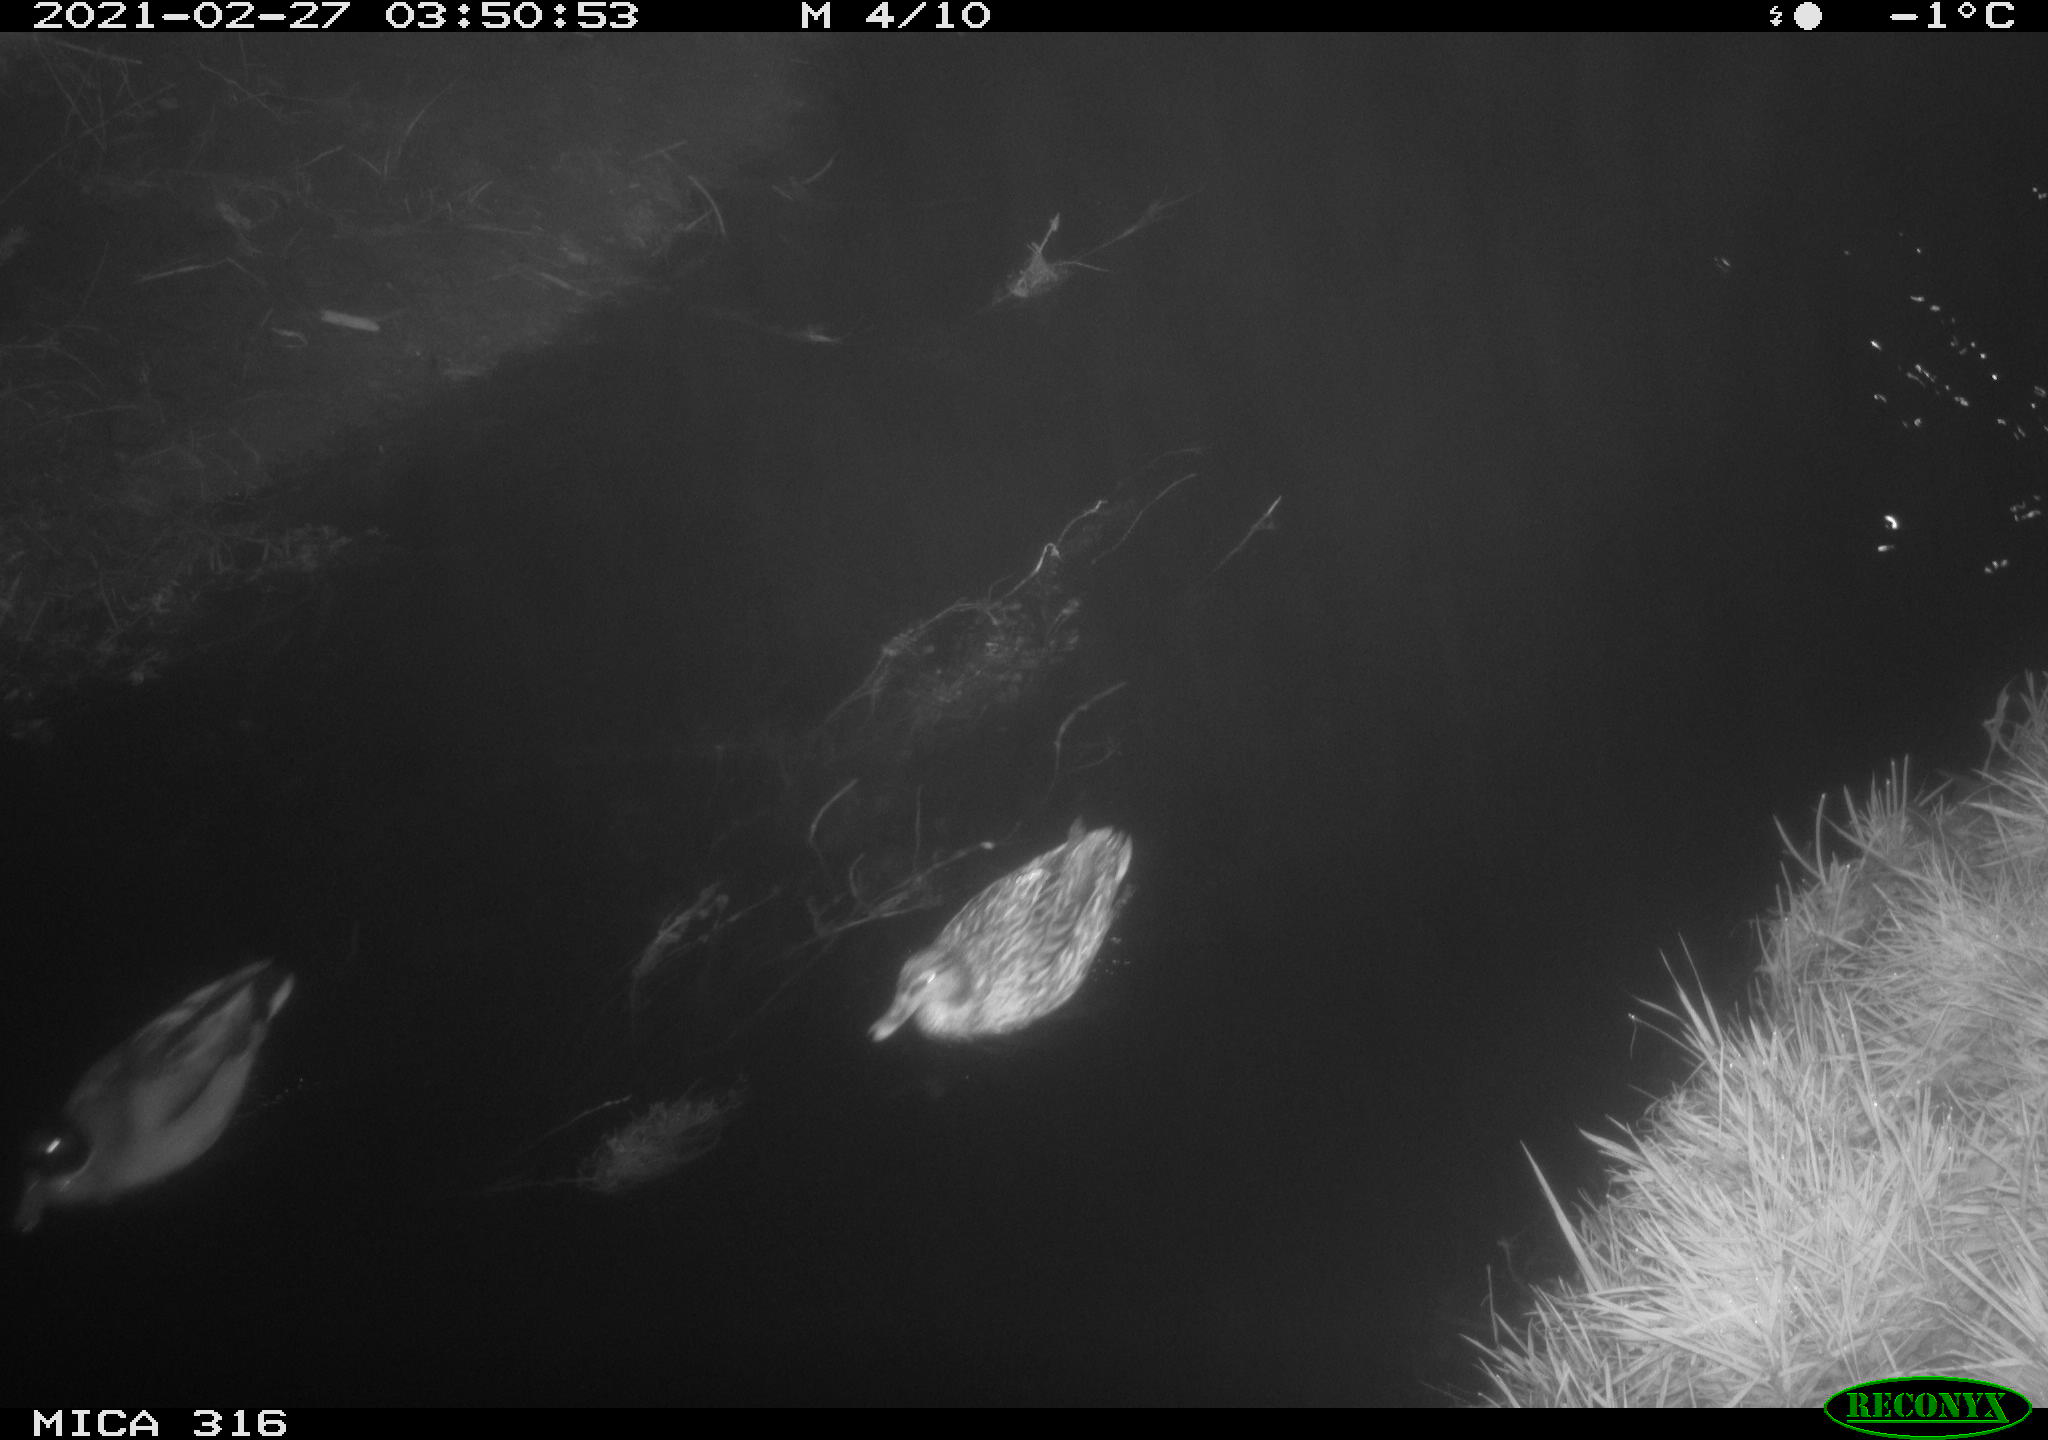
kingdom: Animalia
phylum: Chordata
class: Aves
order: Anseriformes
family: Anatidae
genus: Anas
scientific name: Anas platyrhynchos
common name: Mallard
